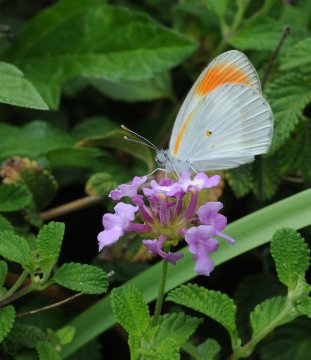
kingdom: Animalia
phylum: Arthropoda
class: Insecta
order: Lepidoptera
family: Pieridae
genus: Colotis
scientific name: Colotis evagore
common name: Desert Orange Tip
